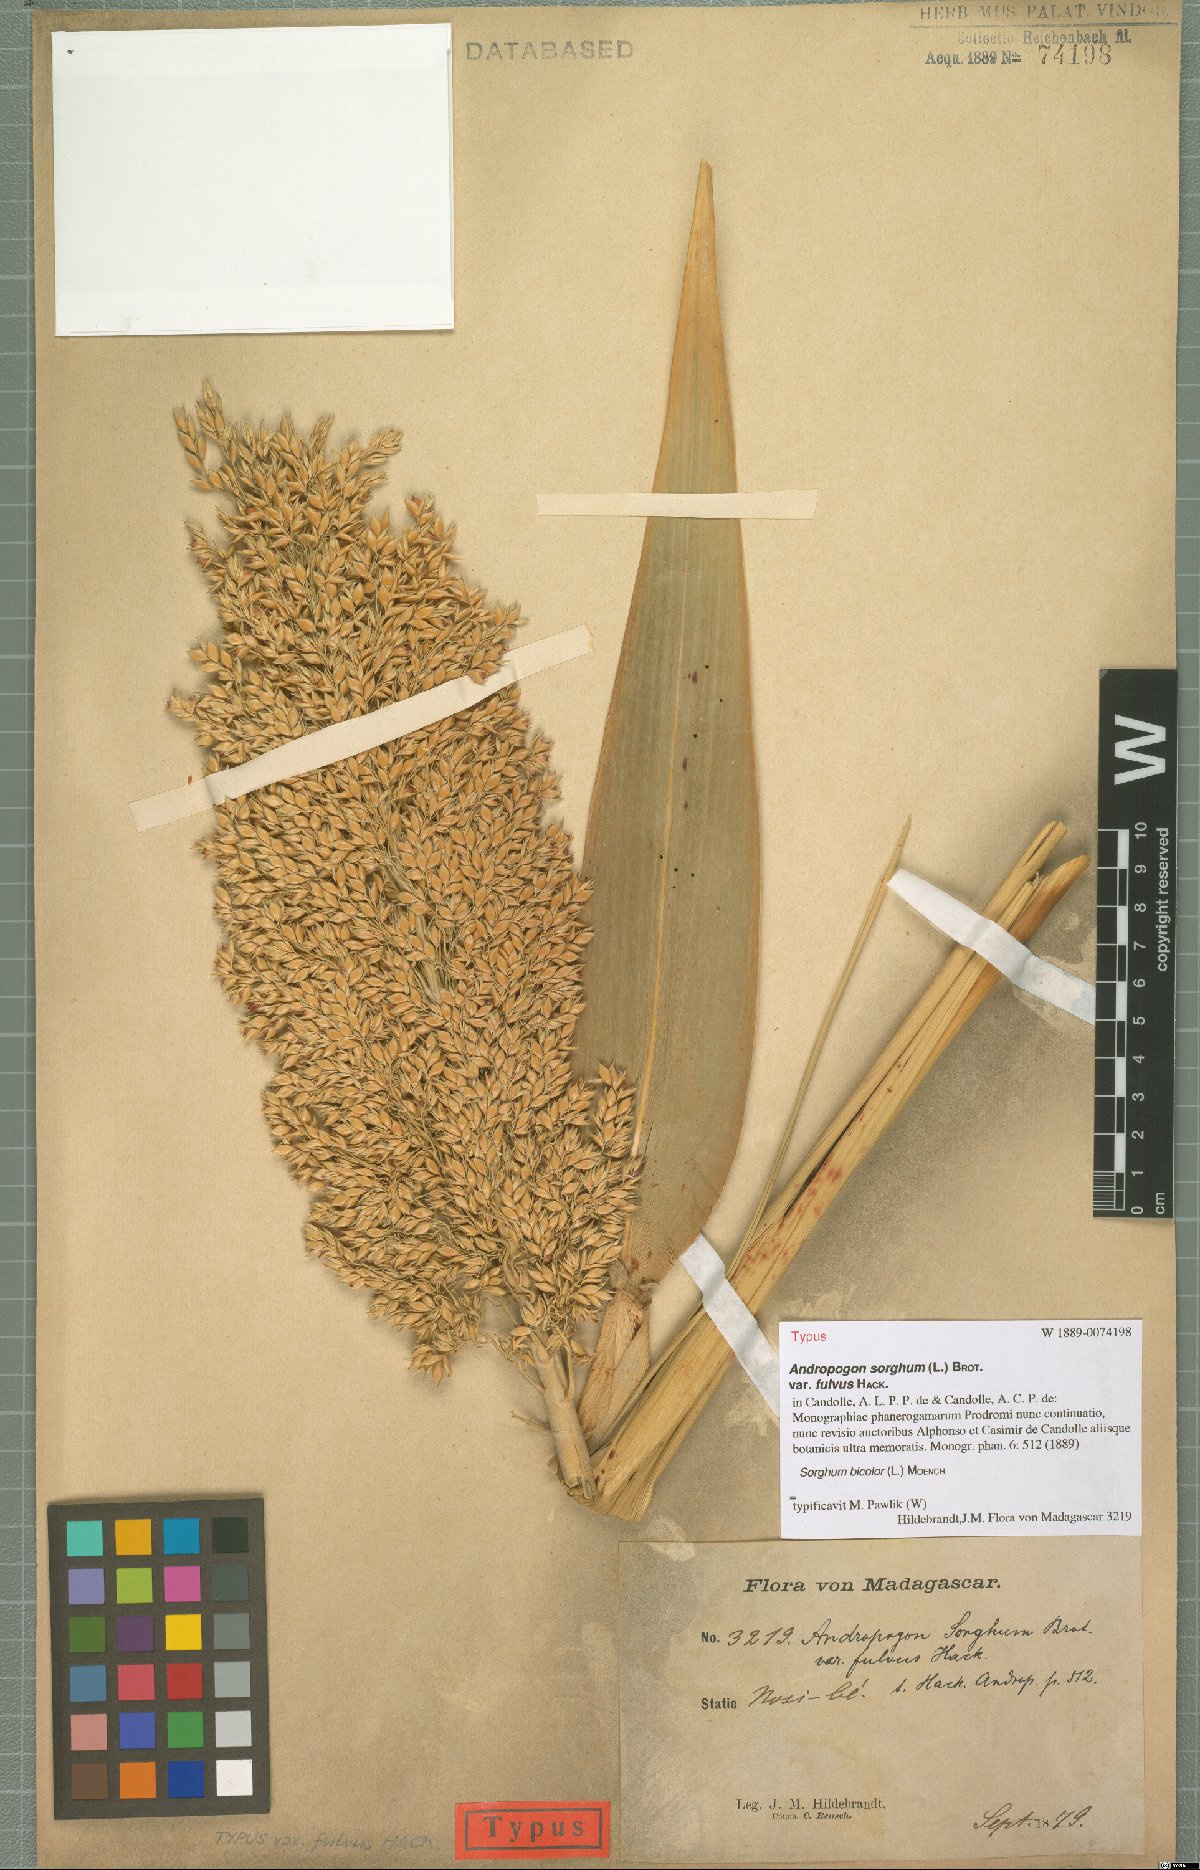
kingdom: Plantae
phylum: Tracheophyta
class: Liliopsida
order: Poales
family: Poaceae
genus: Sorghum
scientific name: Sorghum bicolor
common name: Sorghum
